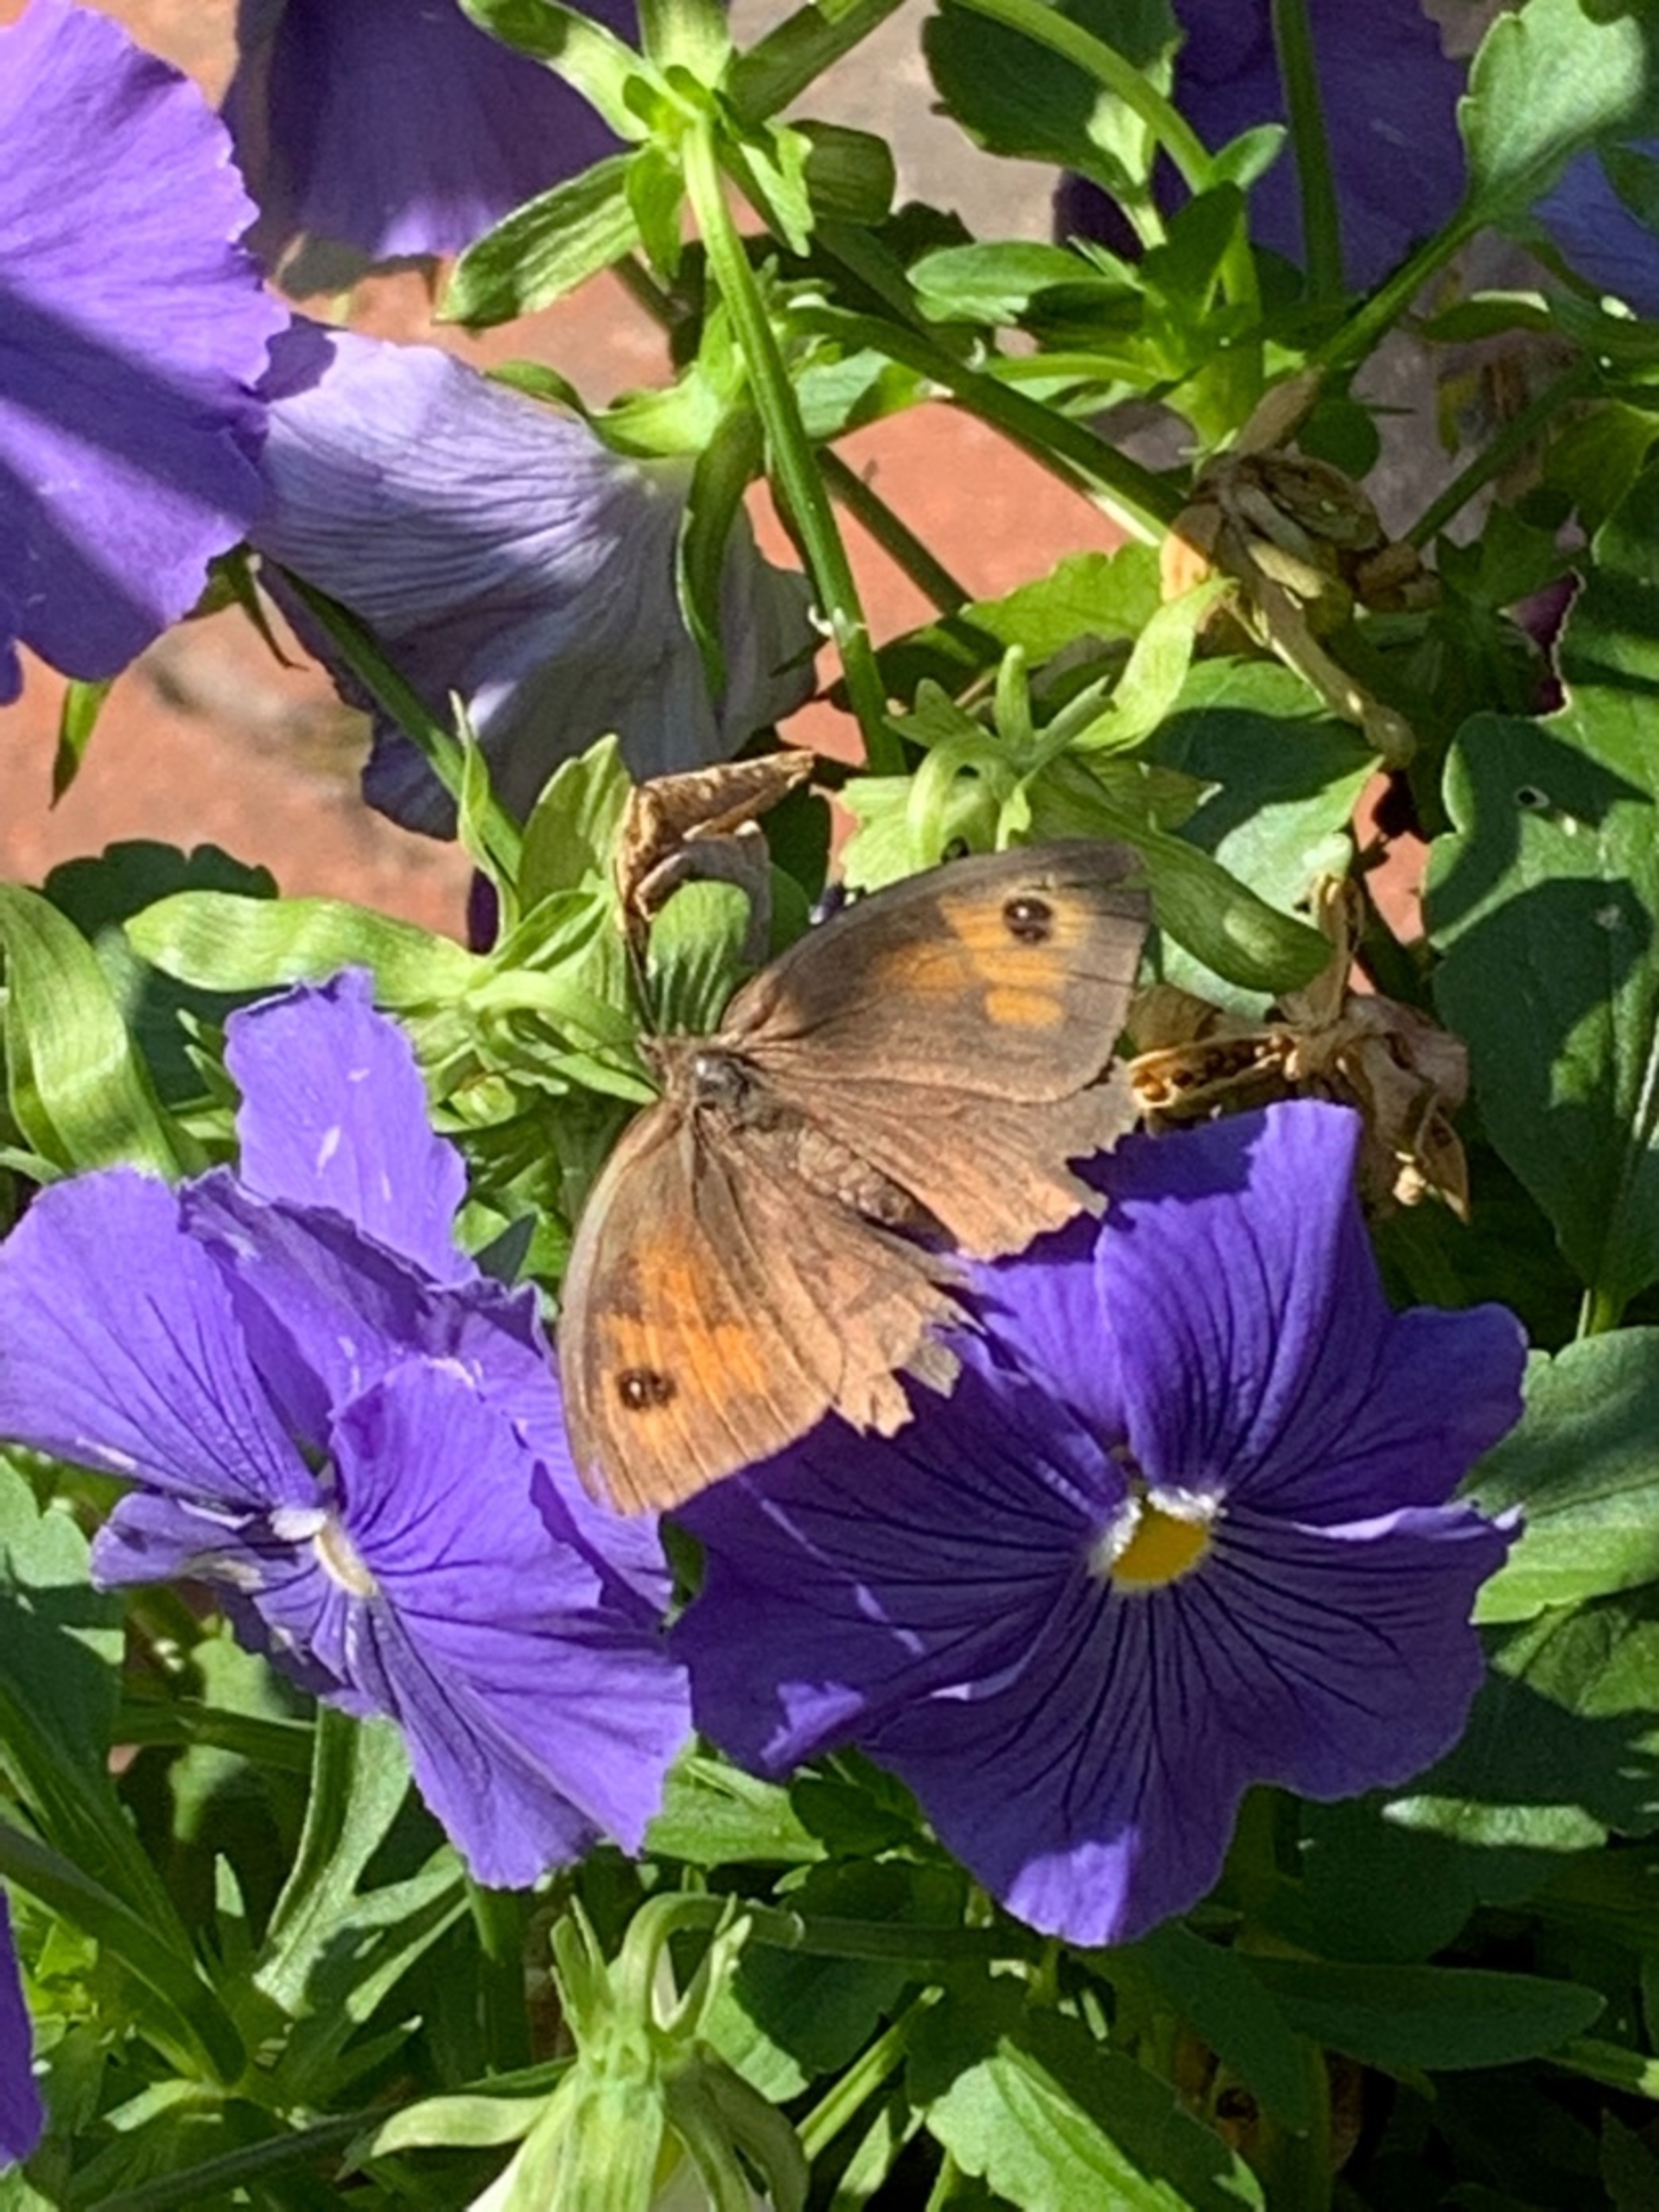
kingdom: Animalia
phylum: Arthropoda
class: Insecta
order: Lepidoptera
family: Nymphalidae
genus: Maniola
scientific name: Maniola jurtina
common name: Græsrandøje
